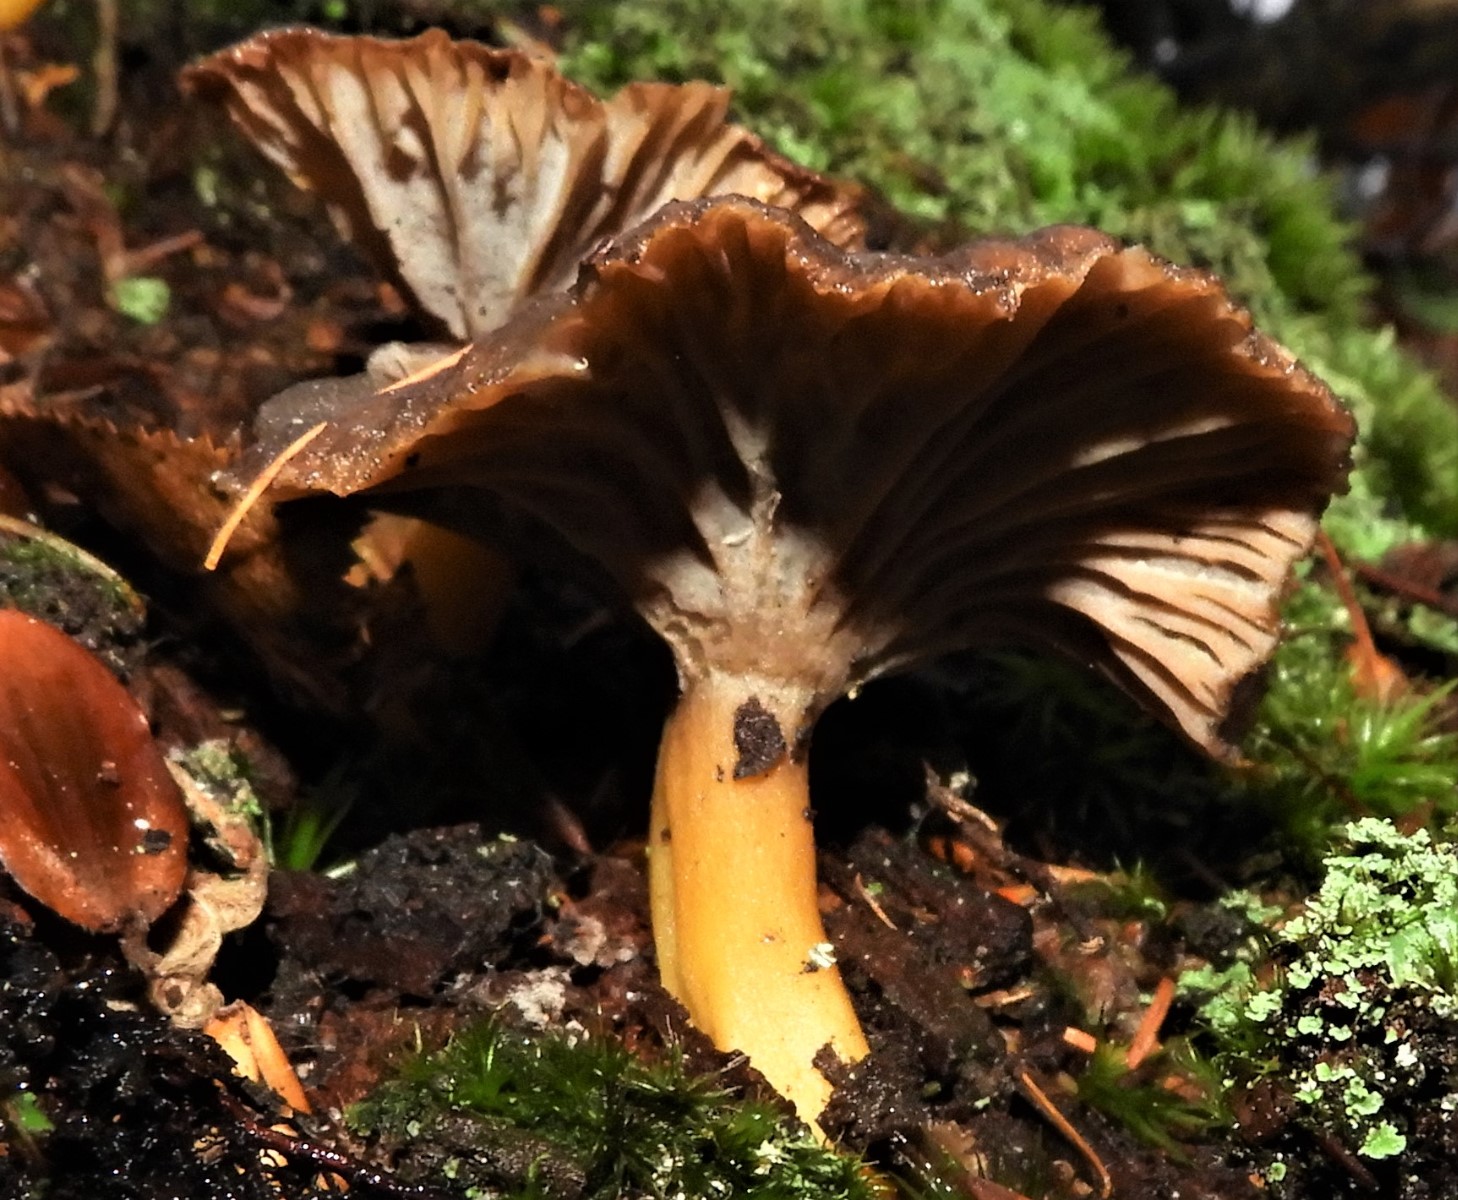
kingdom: Fungi
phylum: Basidiomycota
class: Agaricomycetes
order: Cantharellales
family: Hydnaceae
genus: Craterellus
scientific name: Craterellus tubaeformis
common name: tragt-kantarel
